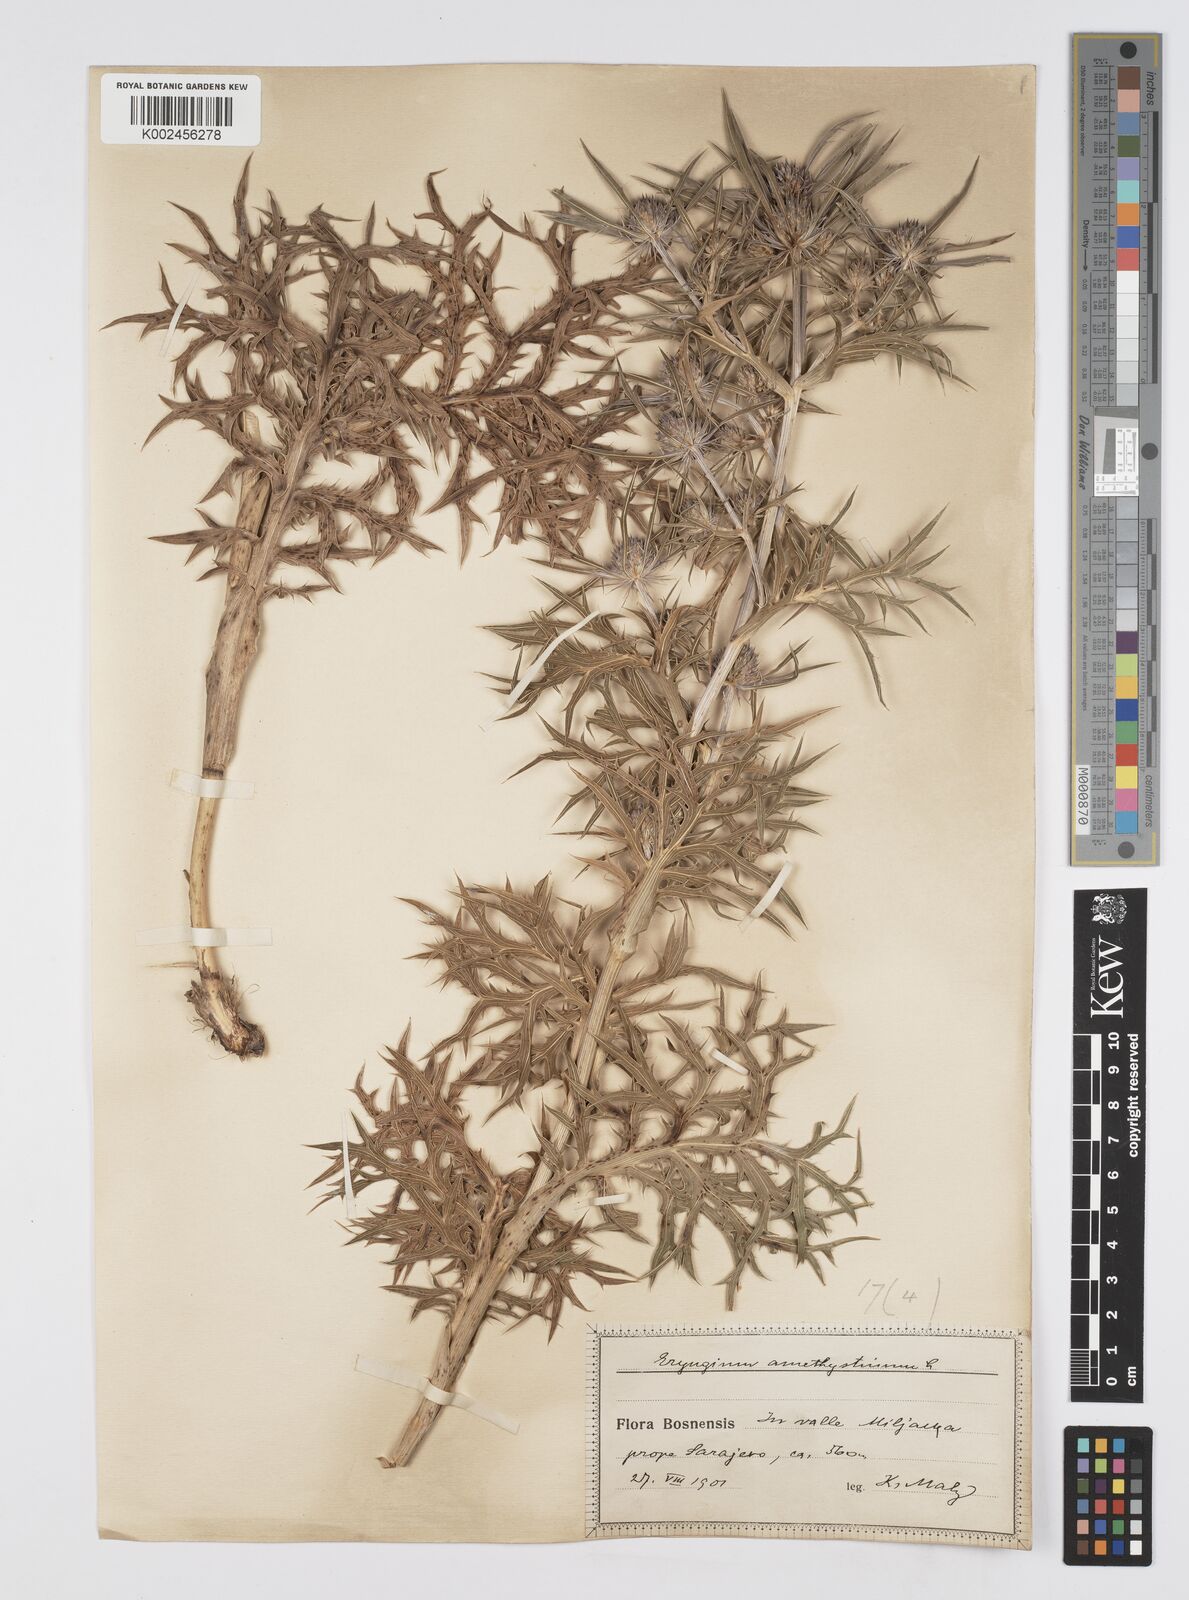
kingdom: Plantae
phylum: Tracheophyta
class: Magnoliopsida
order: Apiales
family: Apiaceae
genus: Eryngium
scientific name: Eryngium amethystinum
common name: Amethyst eryngo
